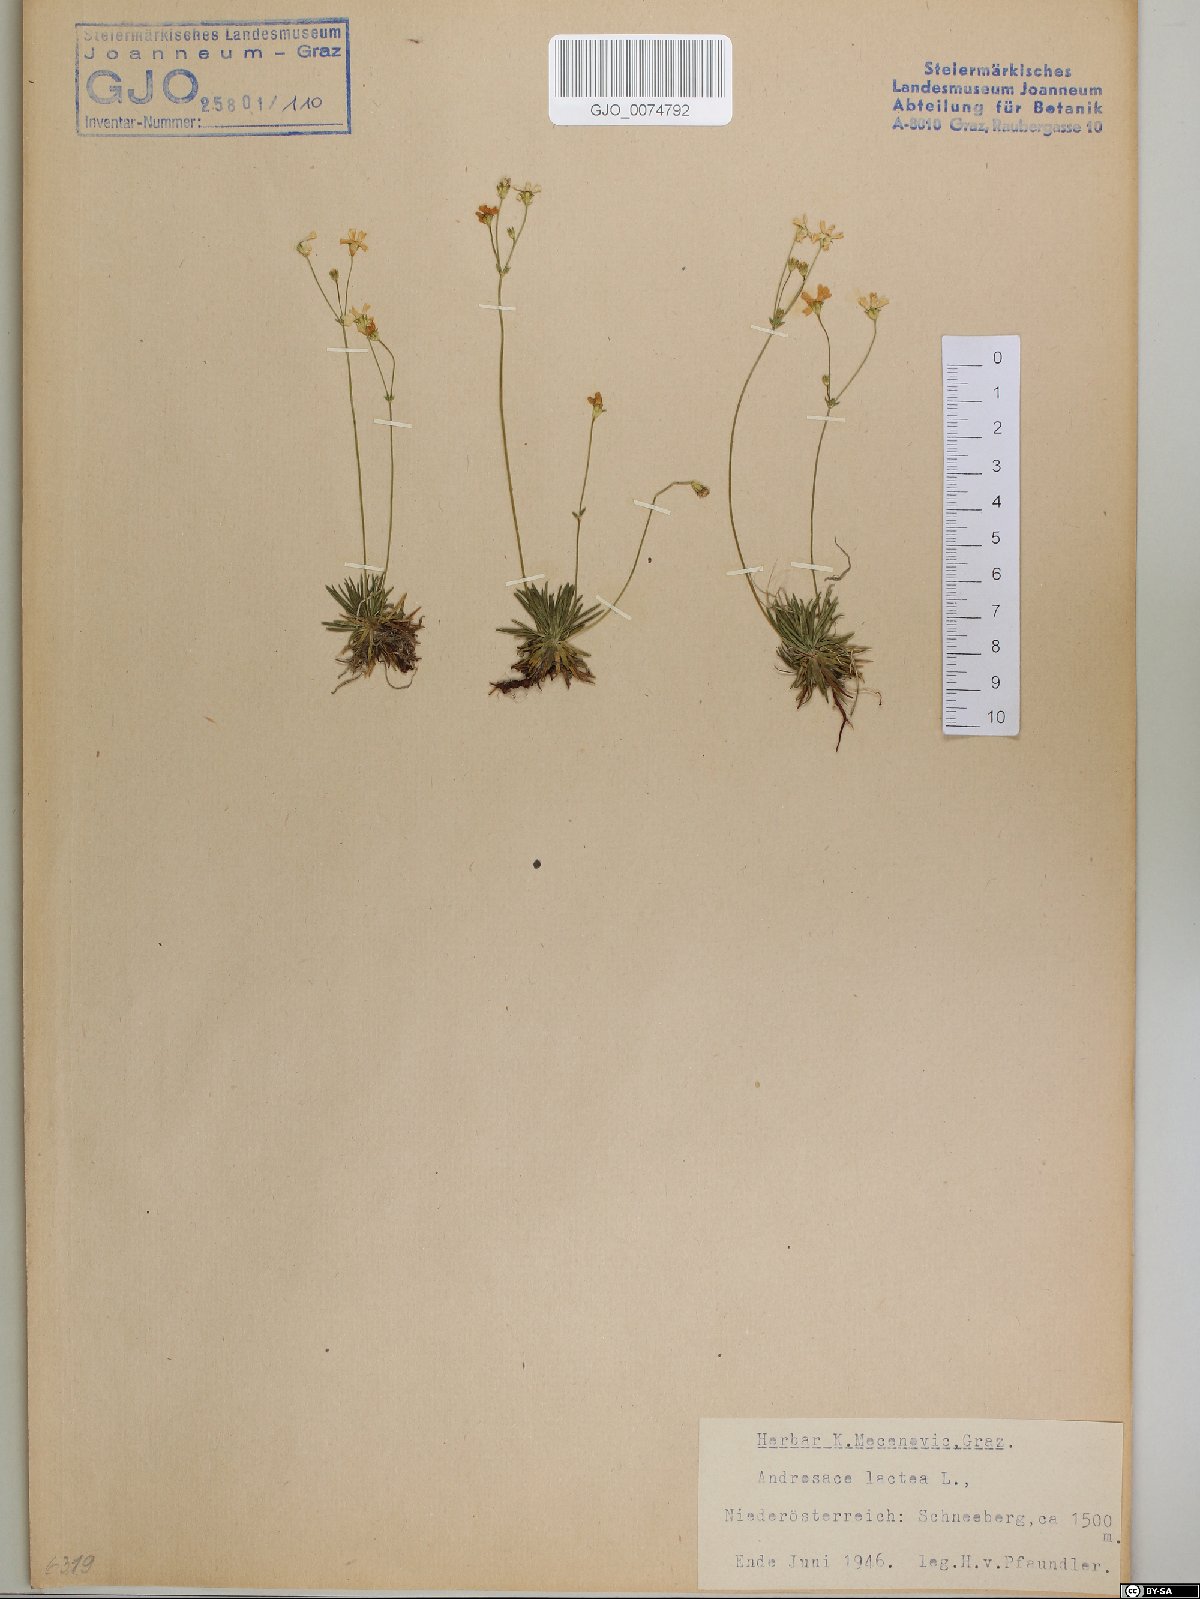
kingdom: Plantae
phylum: Tracheophyta
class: Magnoliopsida
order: Ericales
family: Primulaceae
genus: Androsace
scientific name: Androsace lactea
